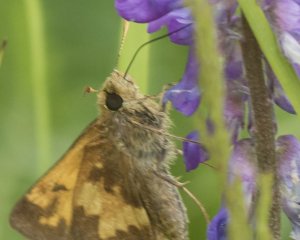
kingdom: Animalia
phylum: Arthropoda
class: Insecta
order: Lepidoptera
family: Hesperiidae
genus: Lon
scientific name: Lon hobomok
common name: Hobomok Skipper
